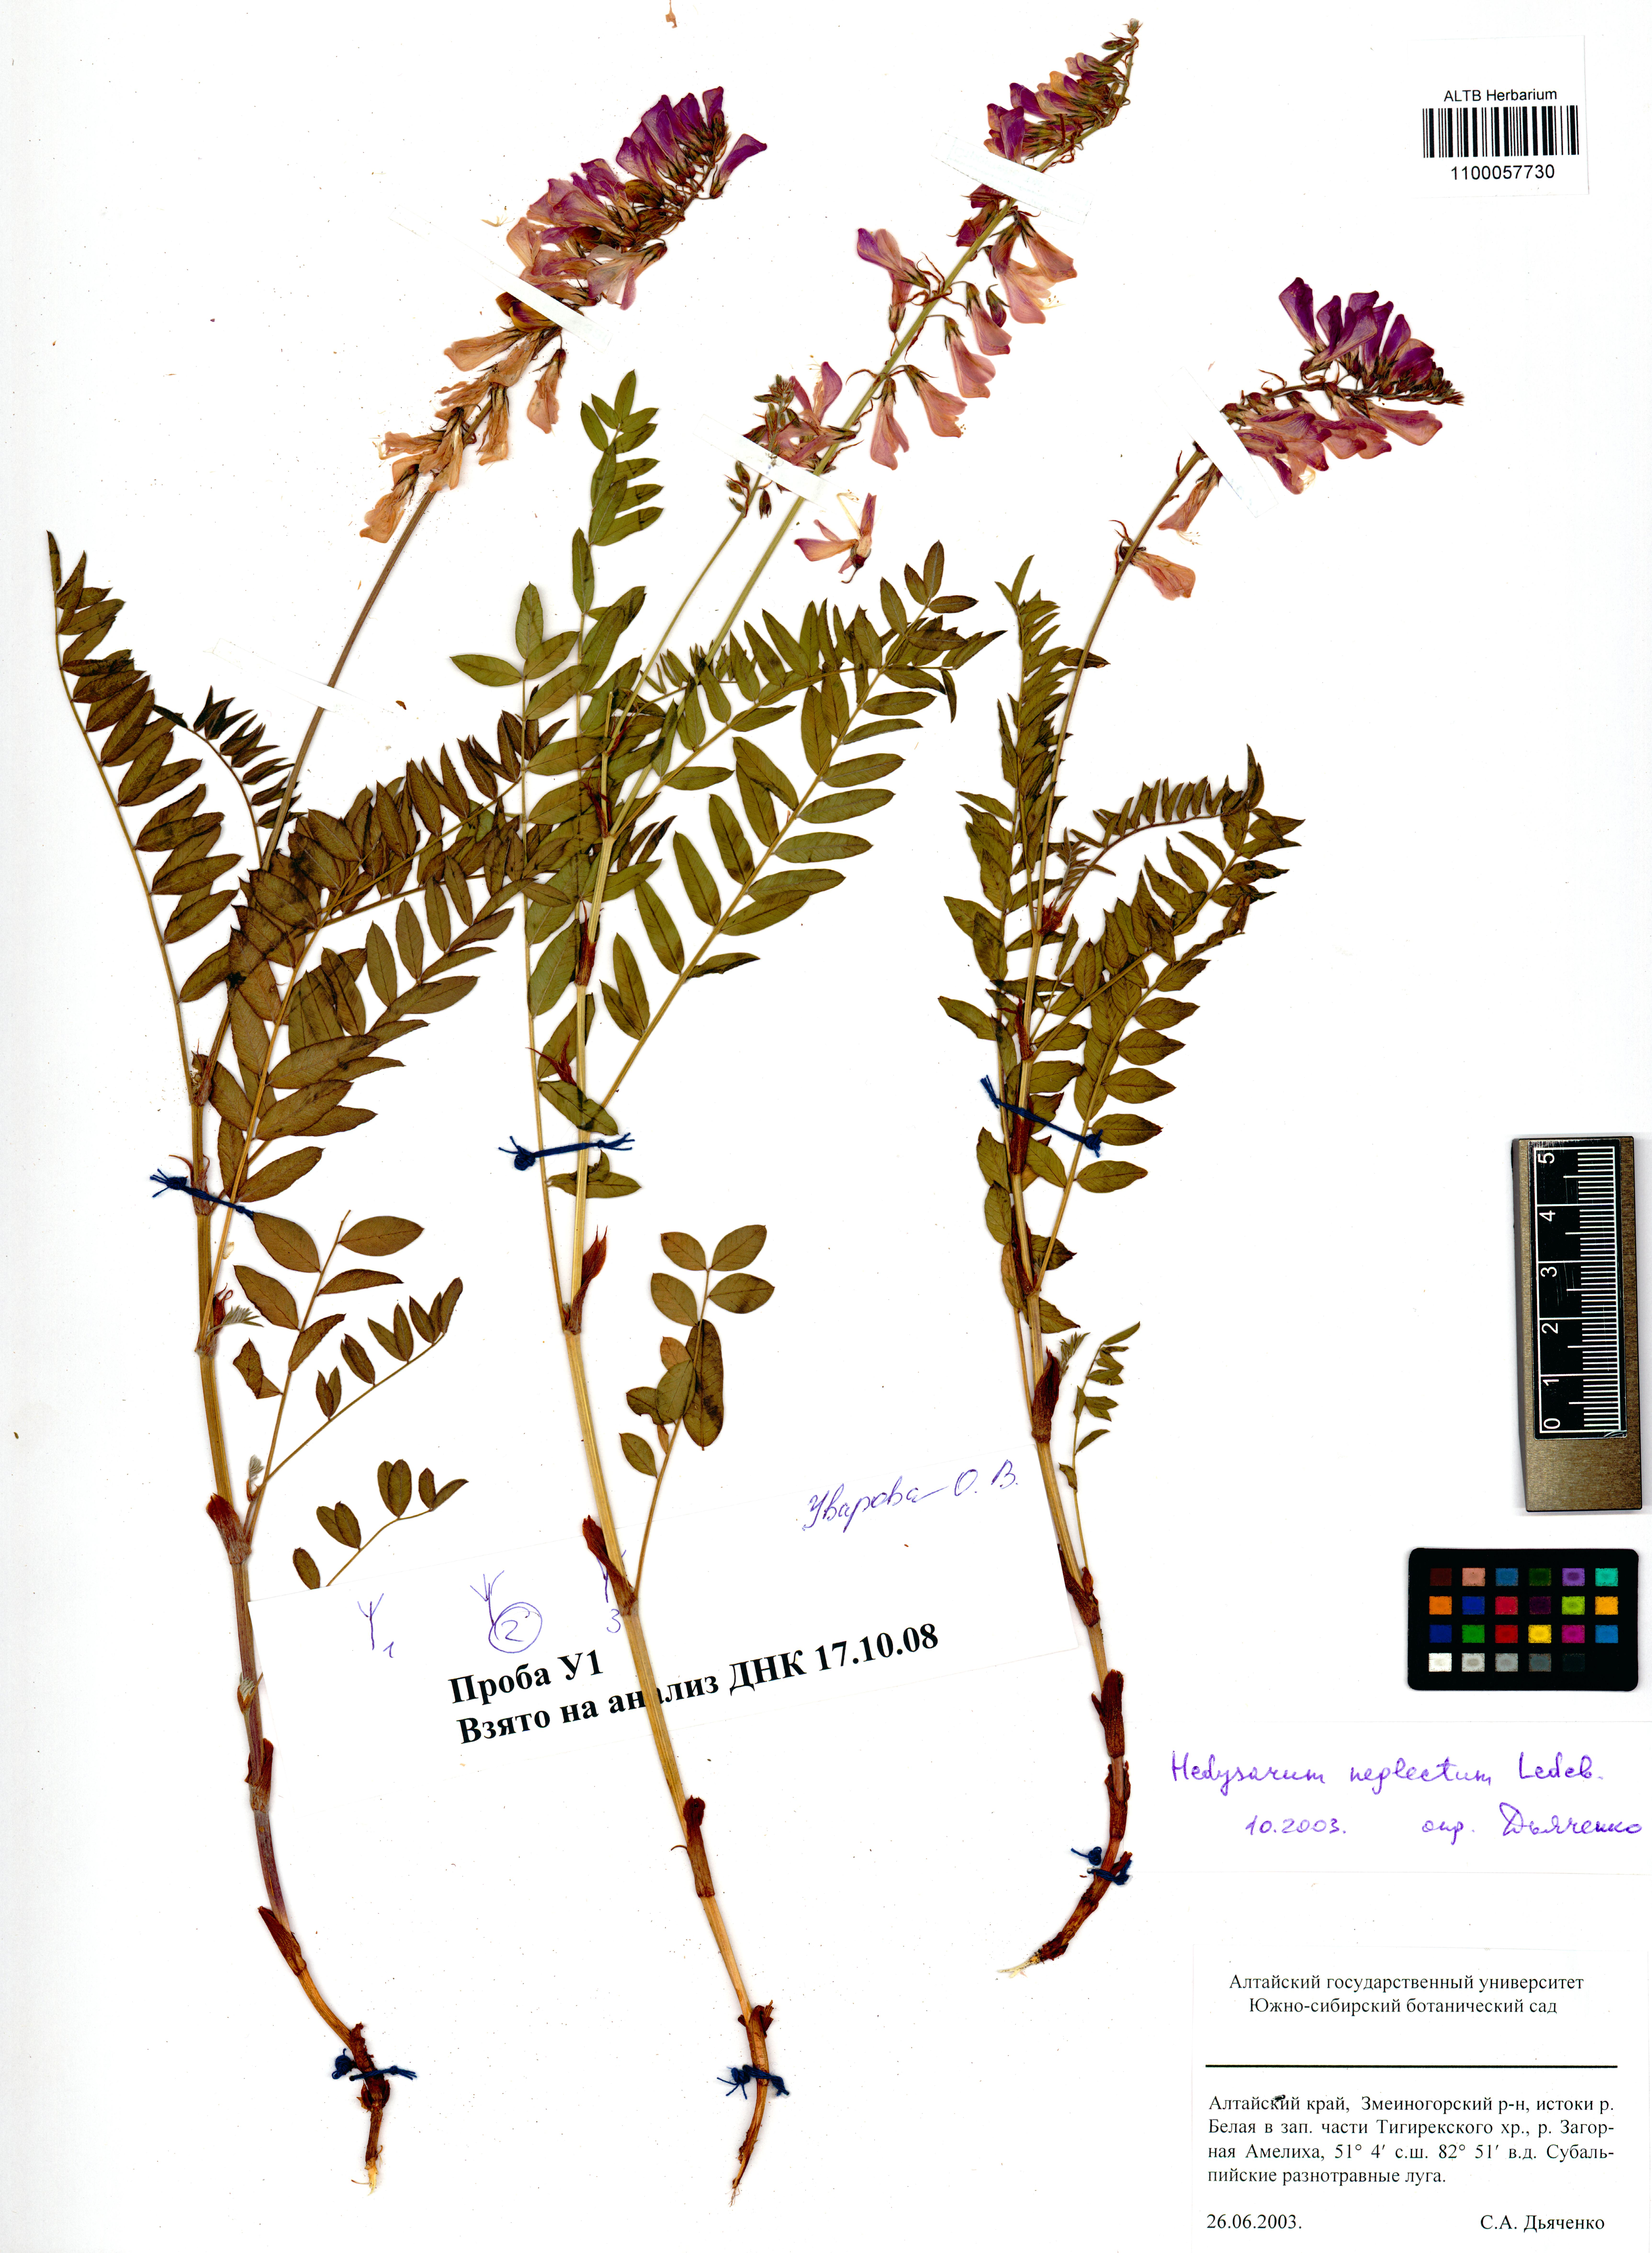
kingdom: Plantae
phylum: Tracheophyta
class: Magnoliopsida
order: Fabales
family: Fabaceae
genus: Hedysarum
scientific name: Hedysarum neglectum
